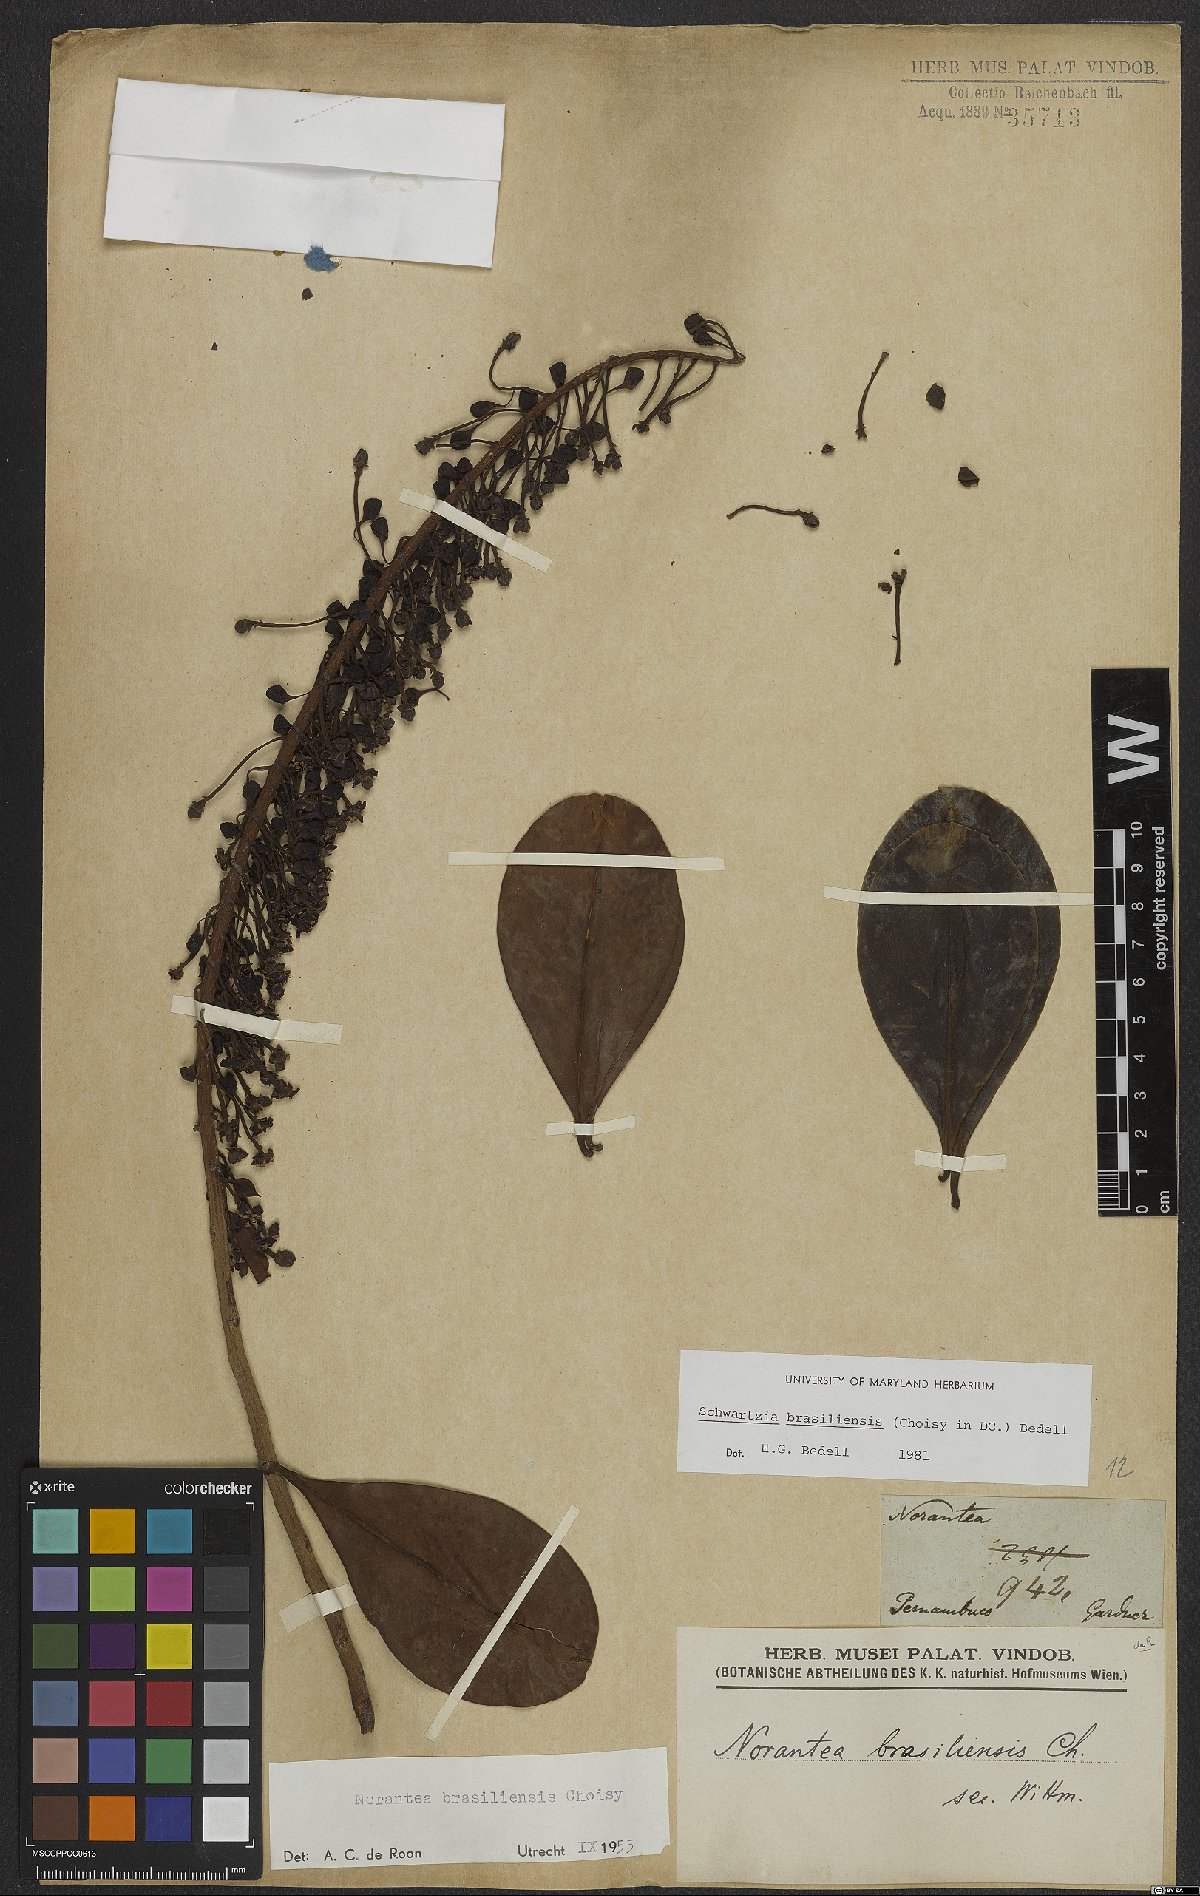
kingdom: Plantae
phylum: Tracheophyta
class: Magnoliopsida
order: Ericales
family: Marcgraviaceae
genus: Schwartzia
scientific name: Schwartzia brasiliensis
